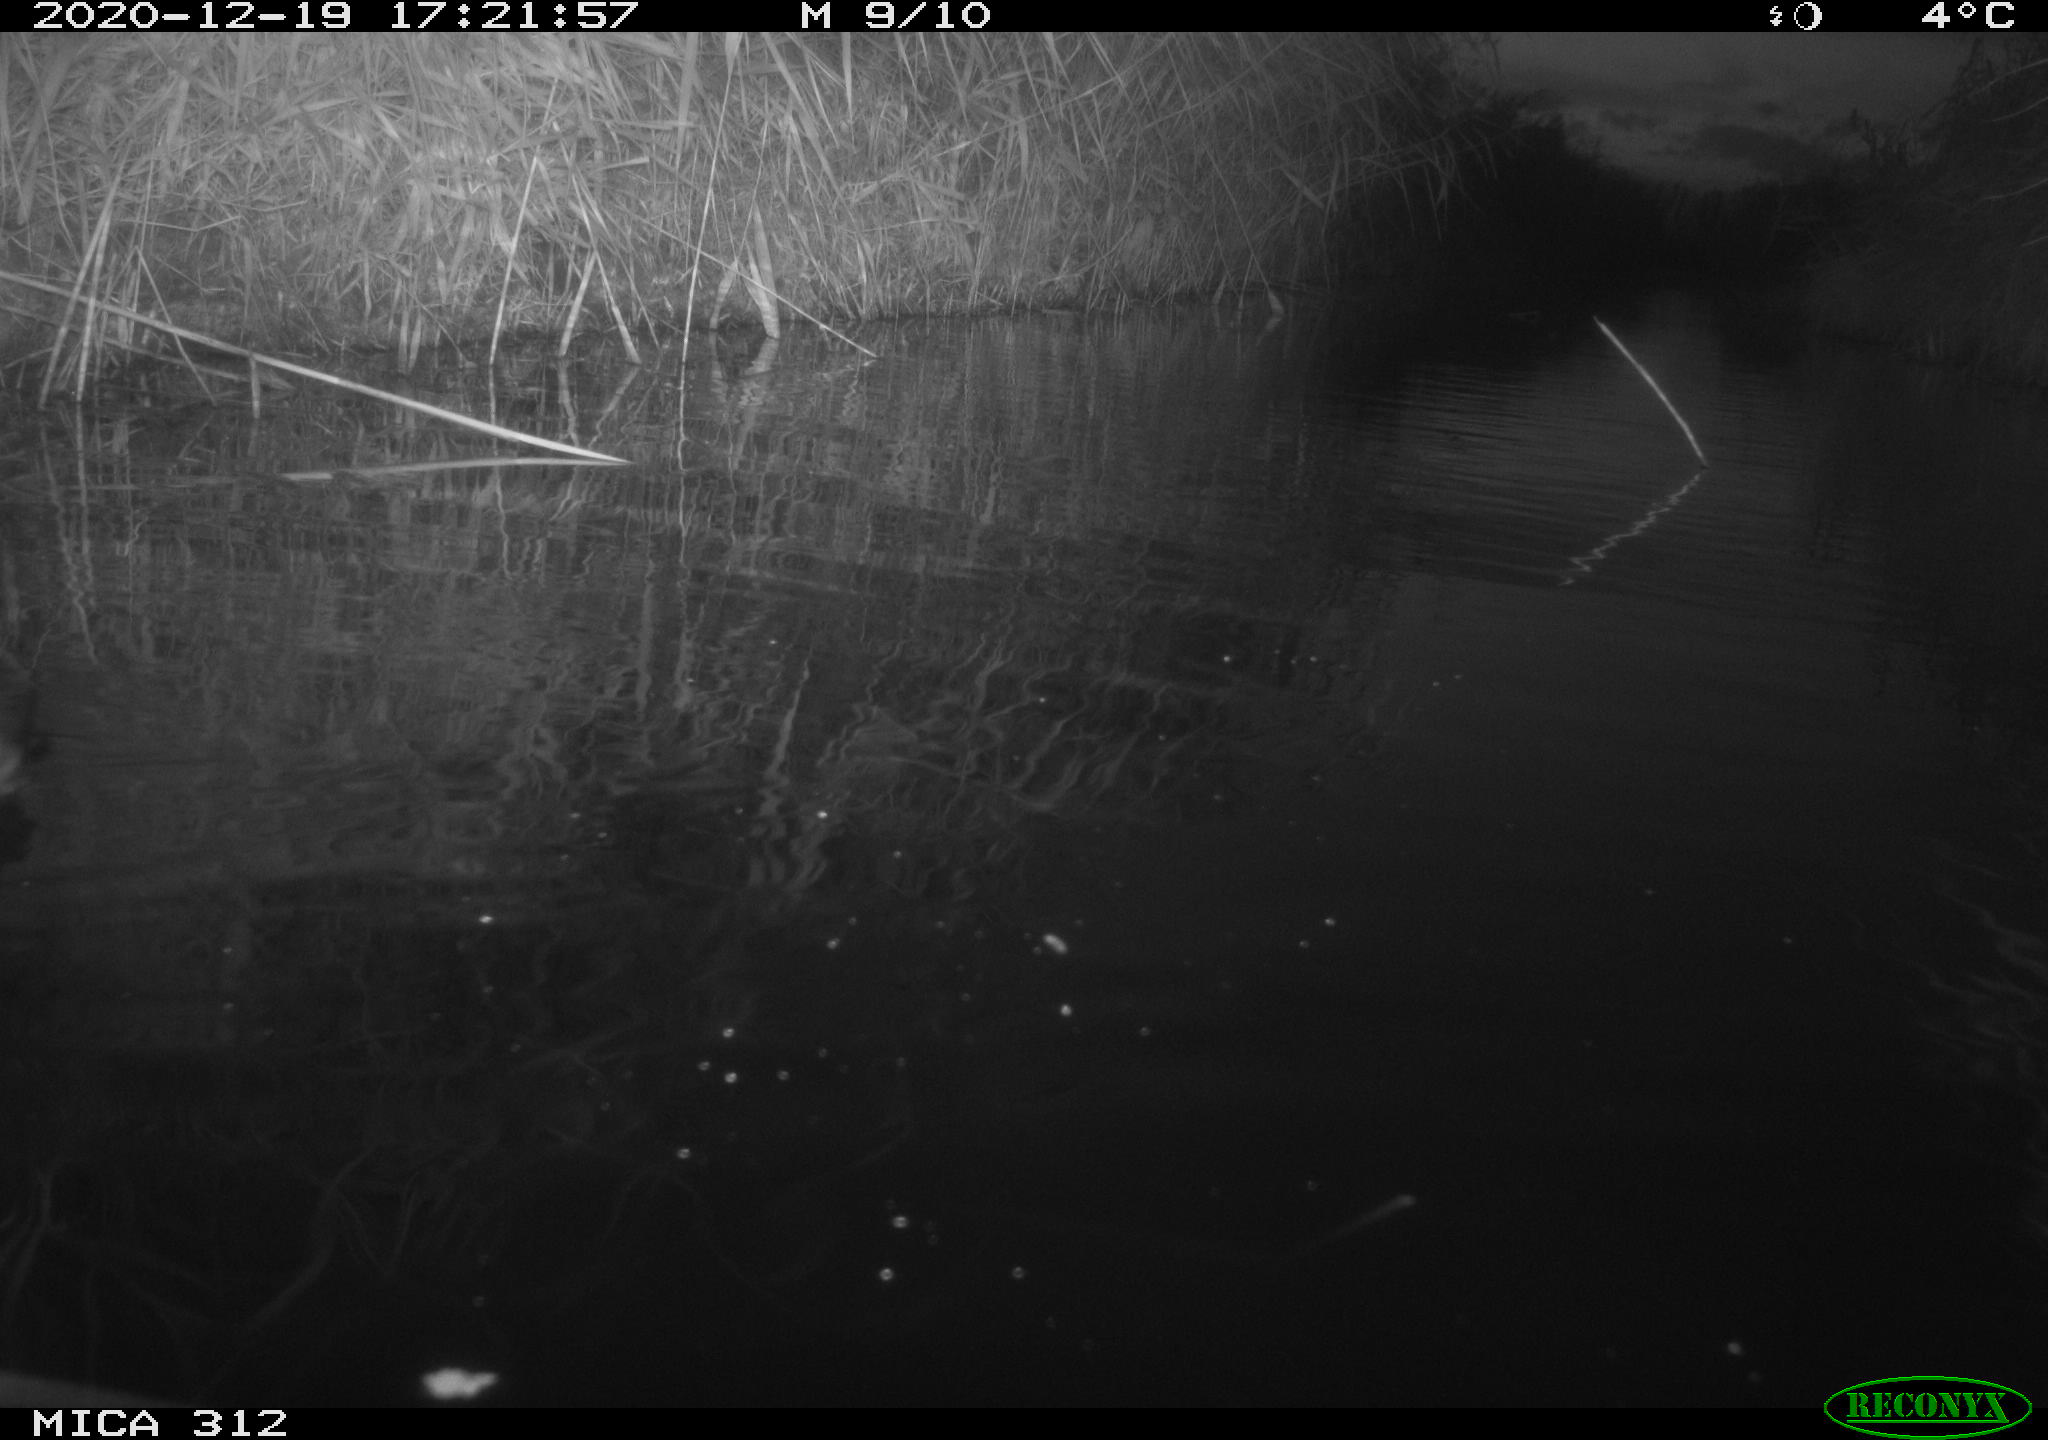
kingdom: Animalia
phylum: Chordata
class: Aves
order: Gruiformes
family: Rallidae
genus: Fulica
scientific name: Fulica atra
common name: Eurasian coot
